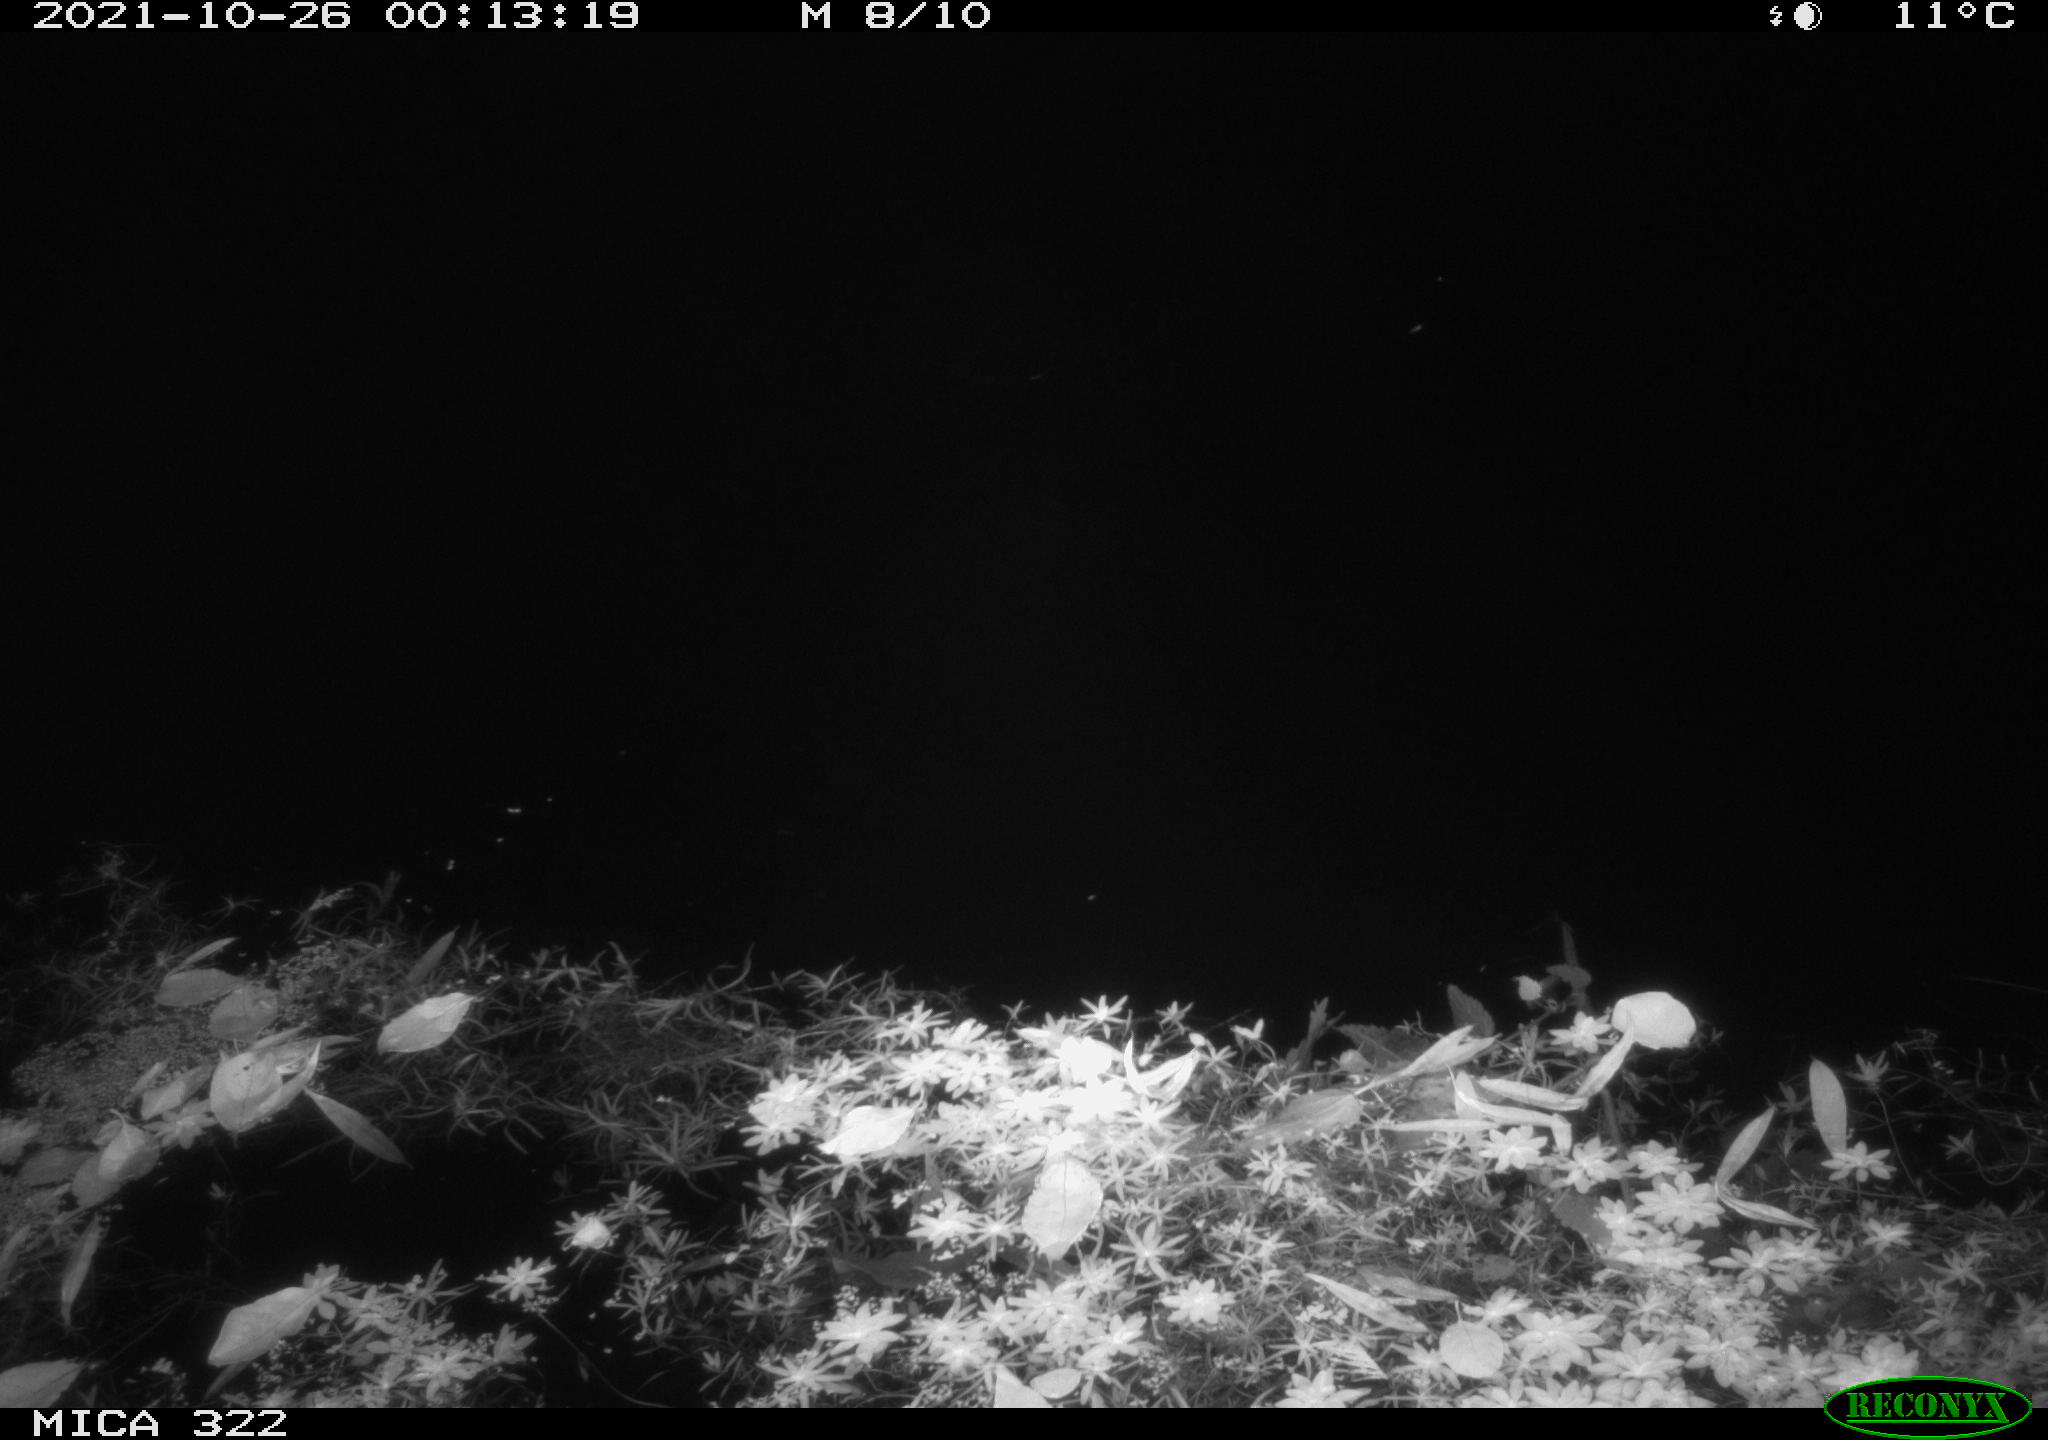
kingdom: Animalia
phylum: Chordata
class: Mammalia
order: Rodentia
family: Muridae
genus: Rattus
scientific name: Rattus norvegicus
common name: Brown rat
